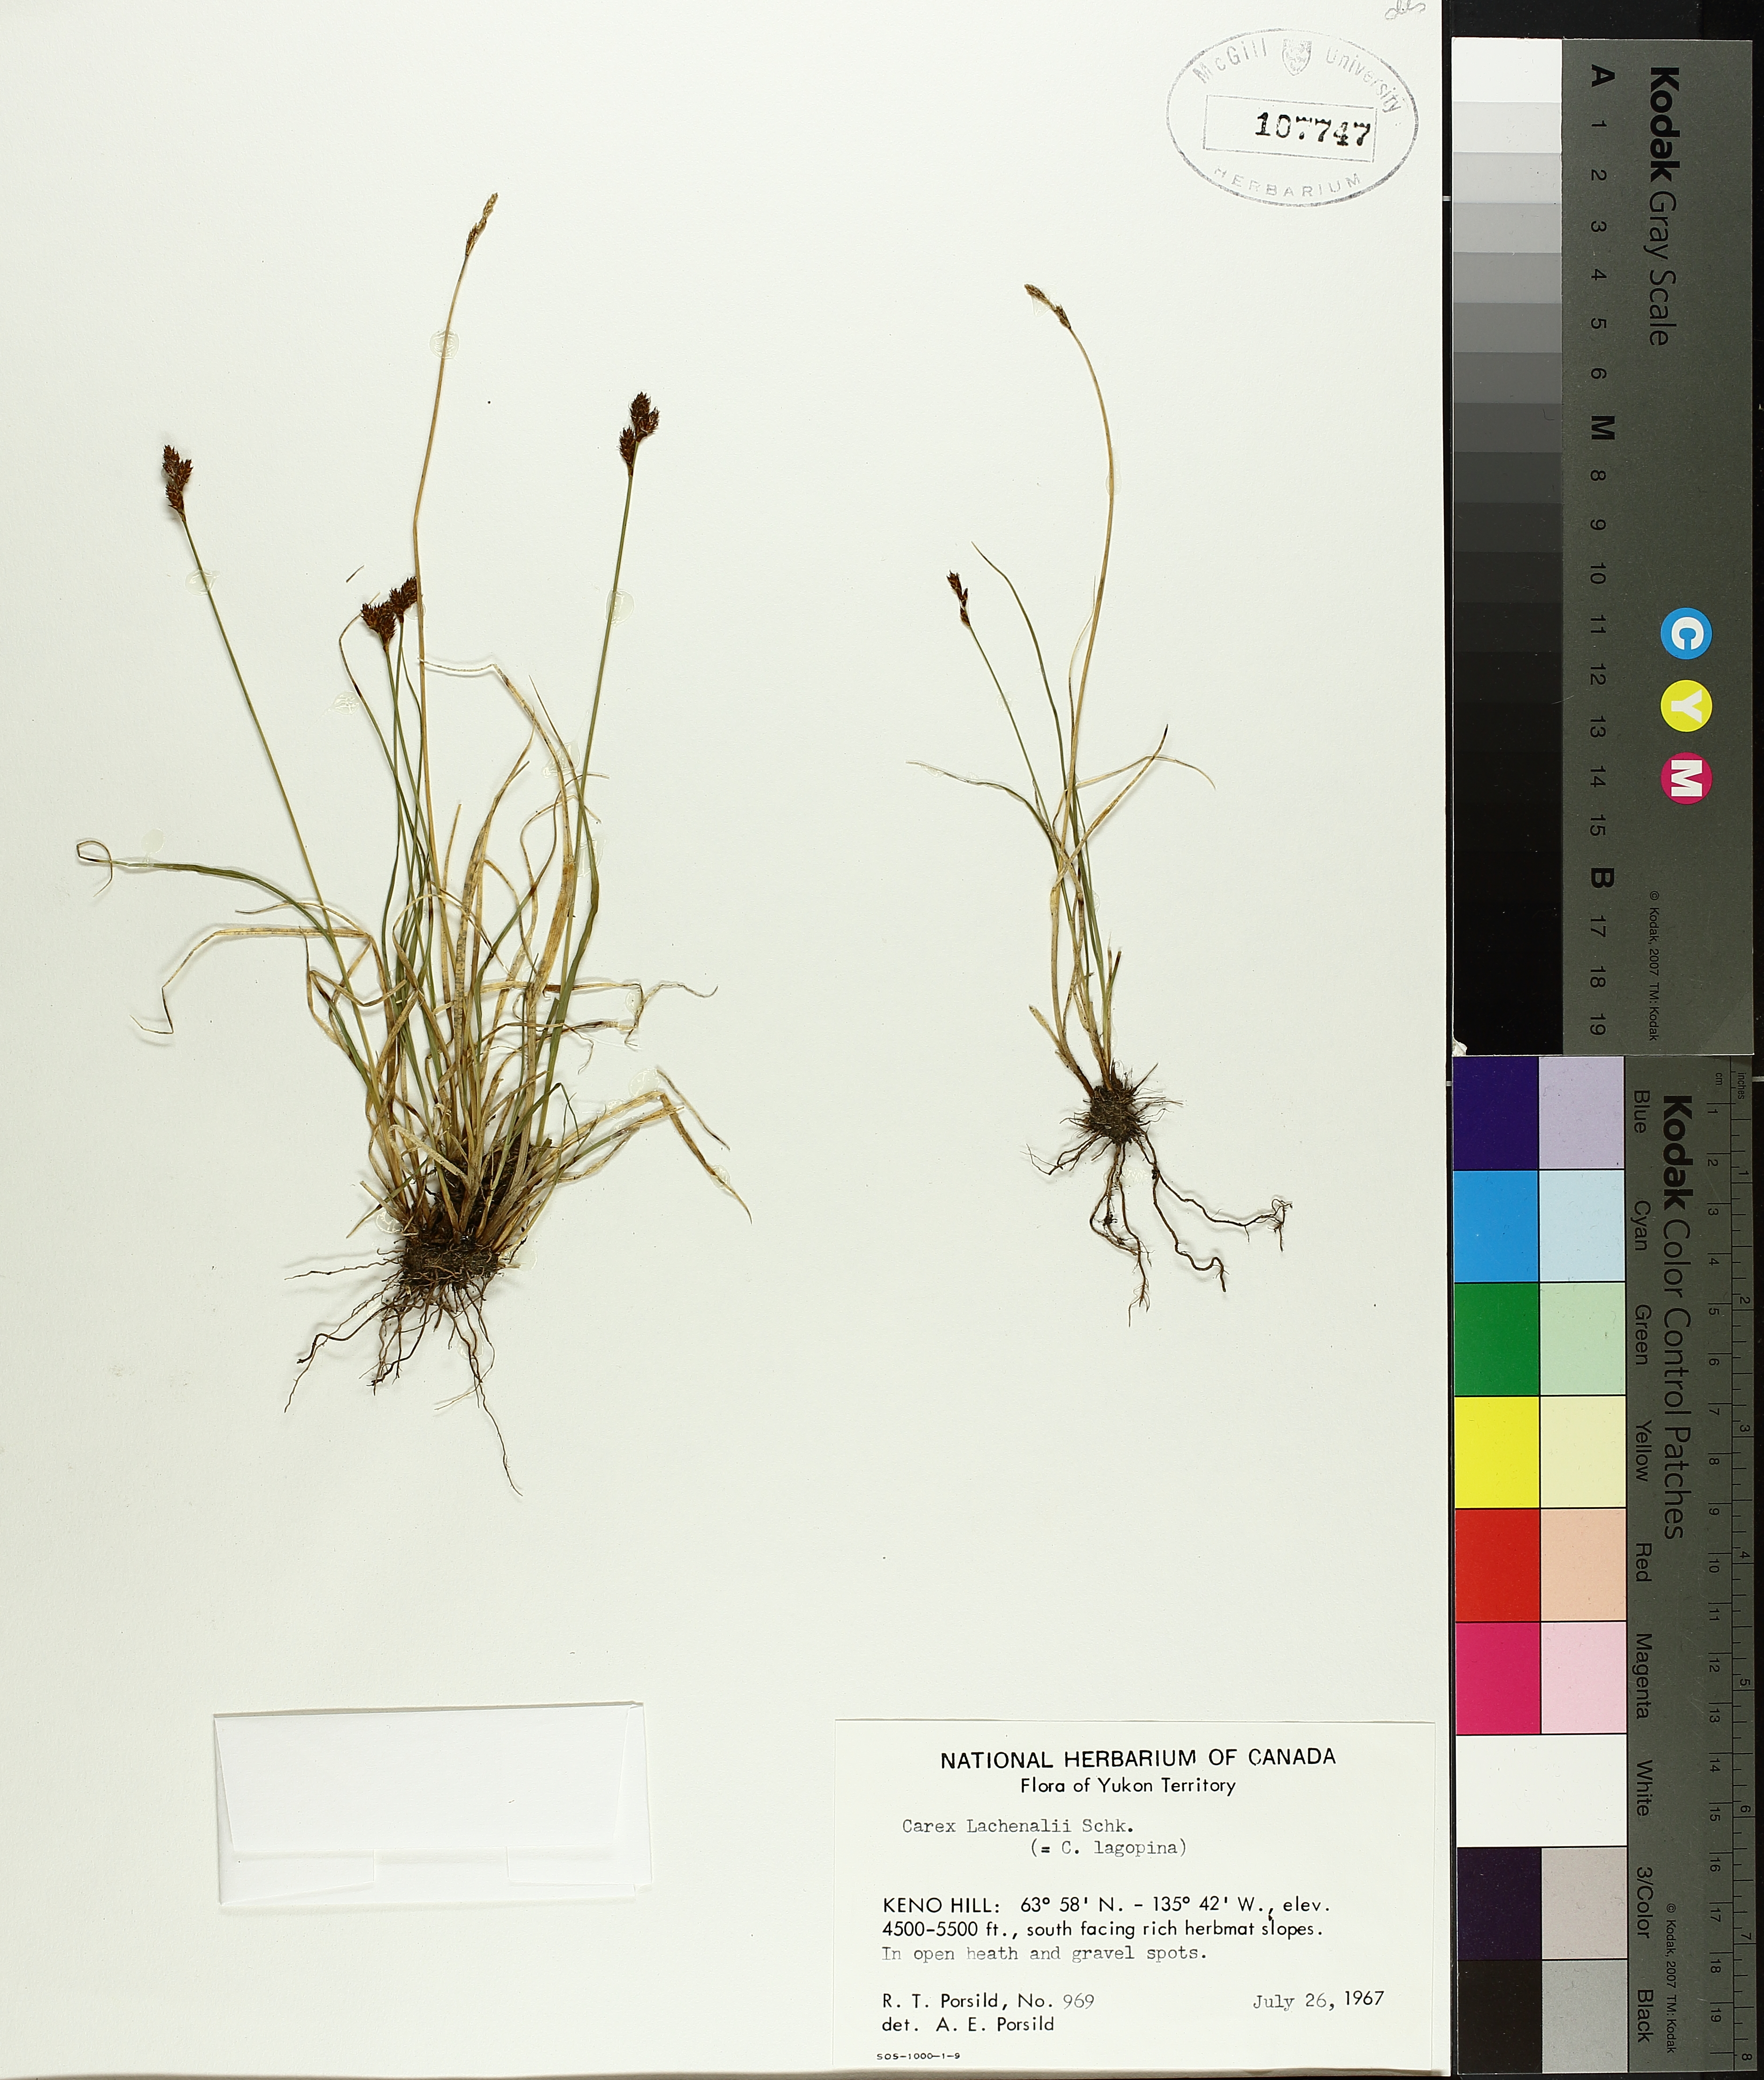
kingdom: Plantae
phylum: Tracheophyta
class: Liliopsida
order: Poales
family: Cyperaceae
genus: Carex
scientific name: Carex lachenalii
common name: Hare's-foot sedge
